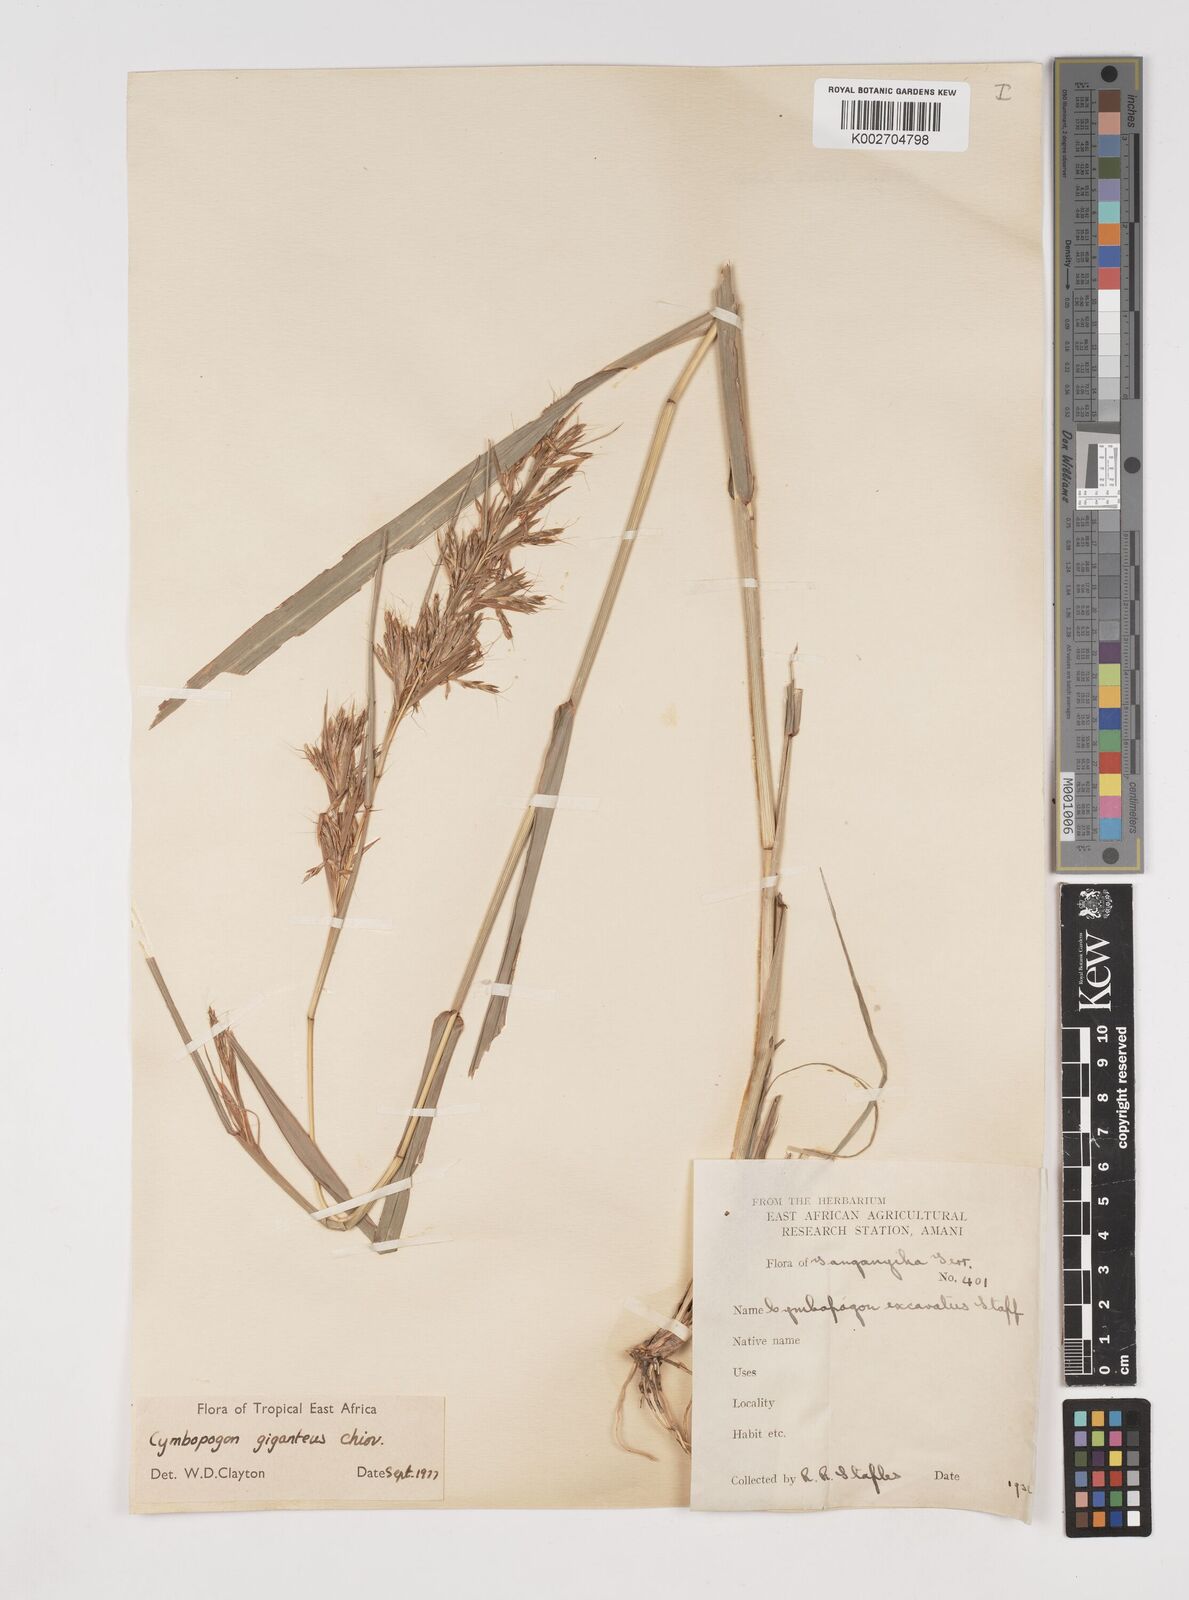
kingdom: Plantae
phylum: Tracheophyta
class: Liliopsida
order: Poales
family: Poaceae
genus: Cymbopogon
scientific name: Cymbopogon giganteus
